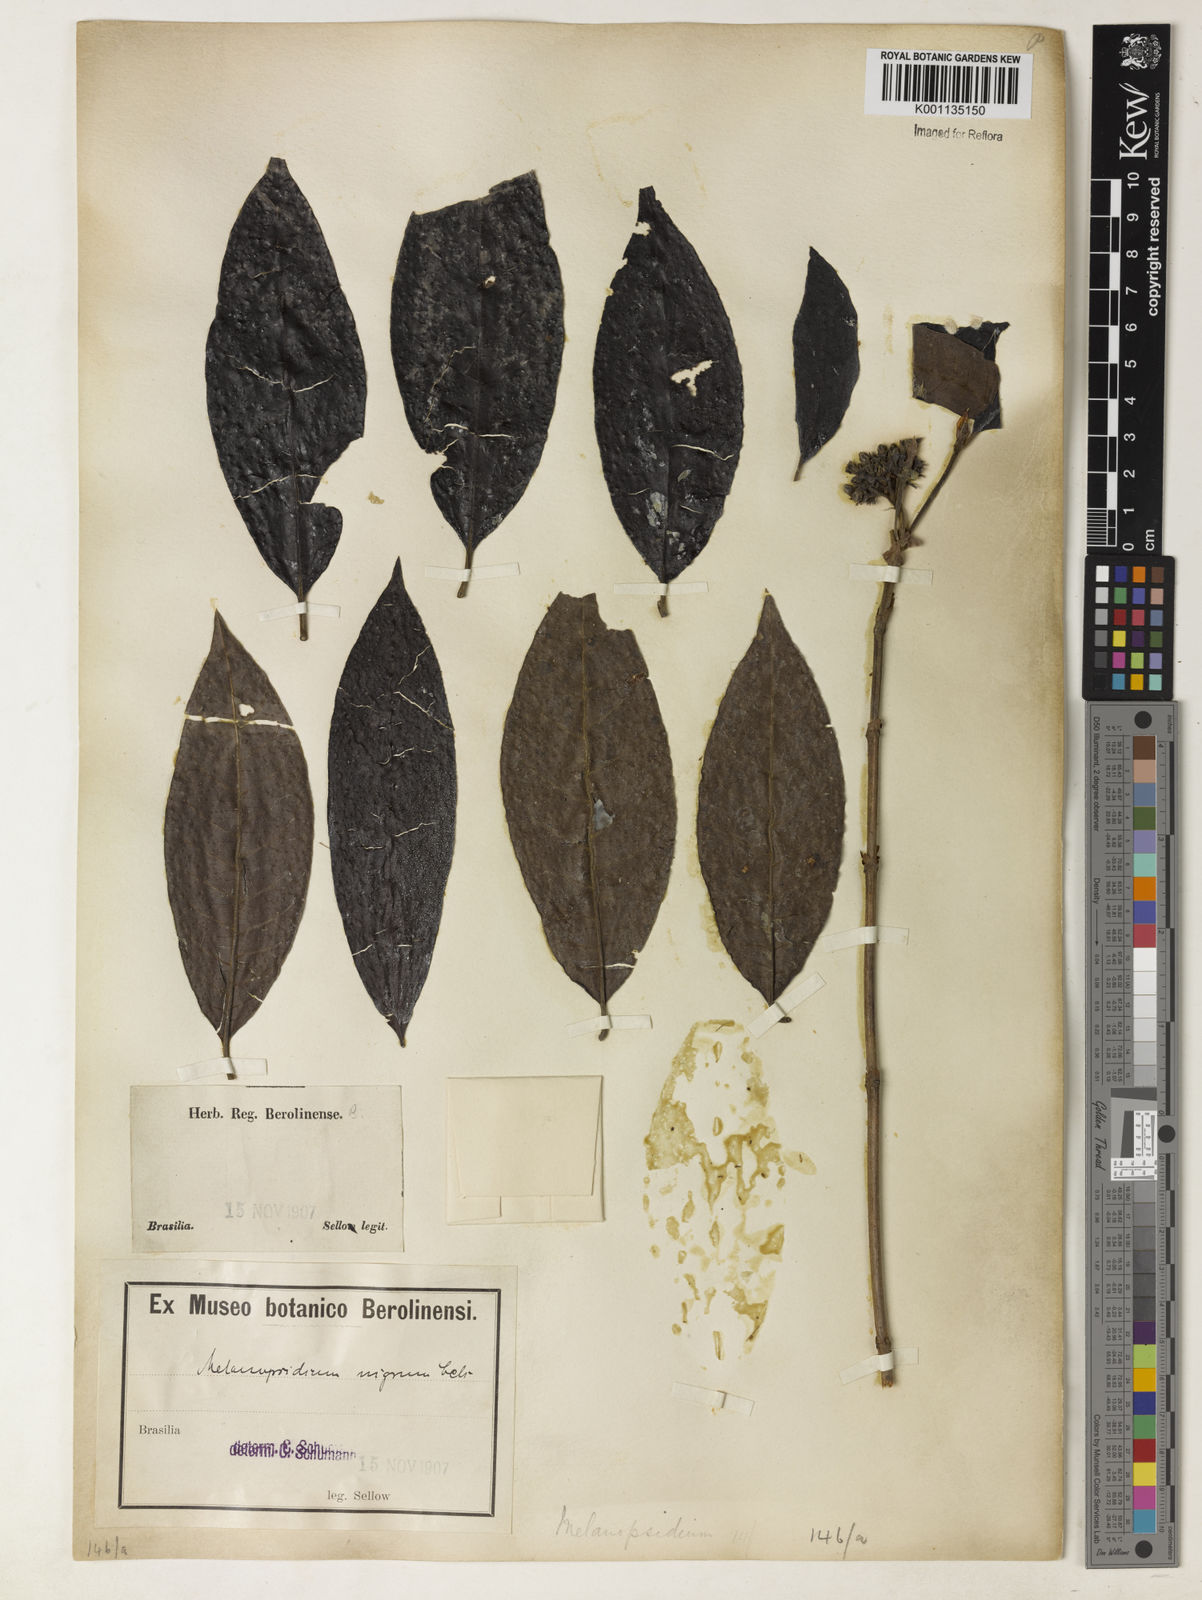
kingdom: Plantae
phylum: Tracheophyta
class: Magnoliopsida
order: Gentianales
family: Rubiaceae
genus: Melanopsidium
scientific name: Melanopsidium nigrum
